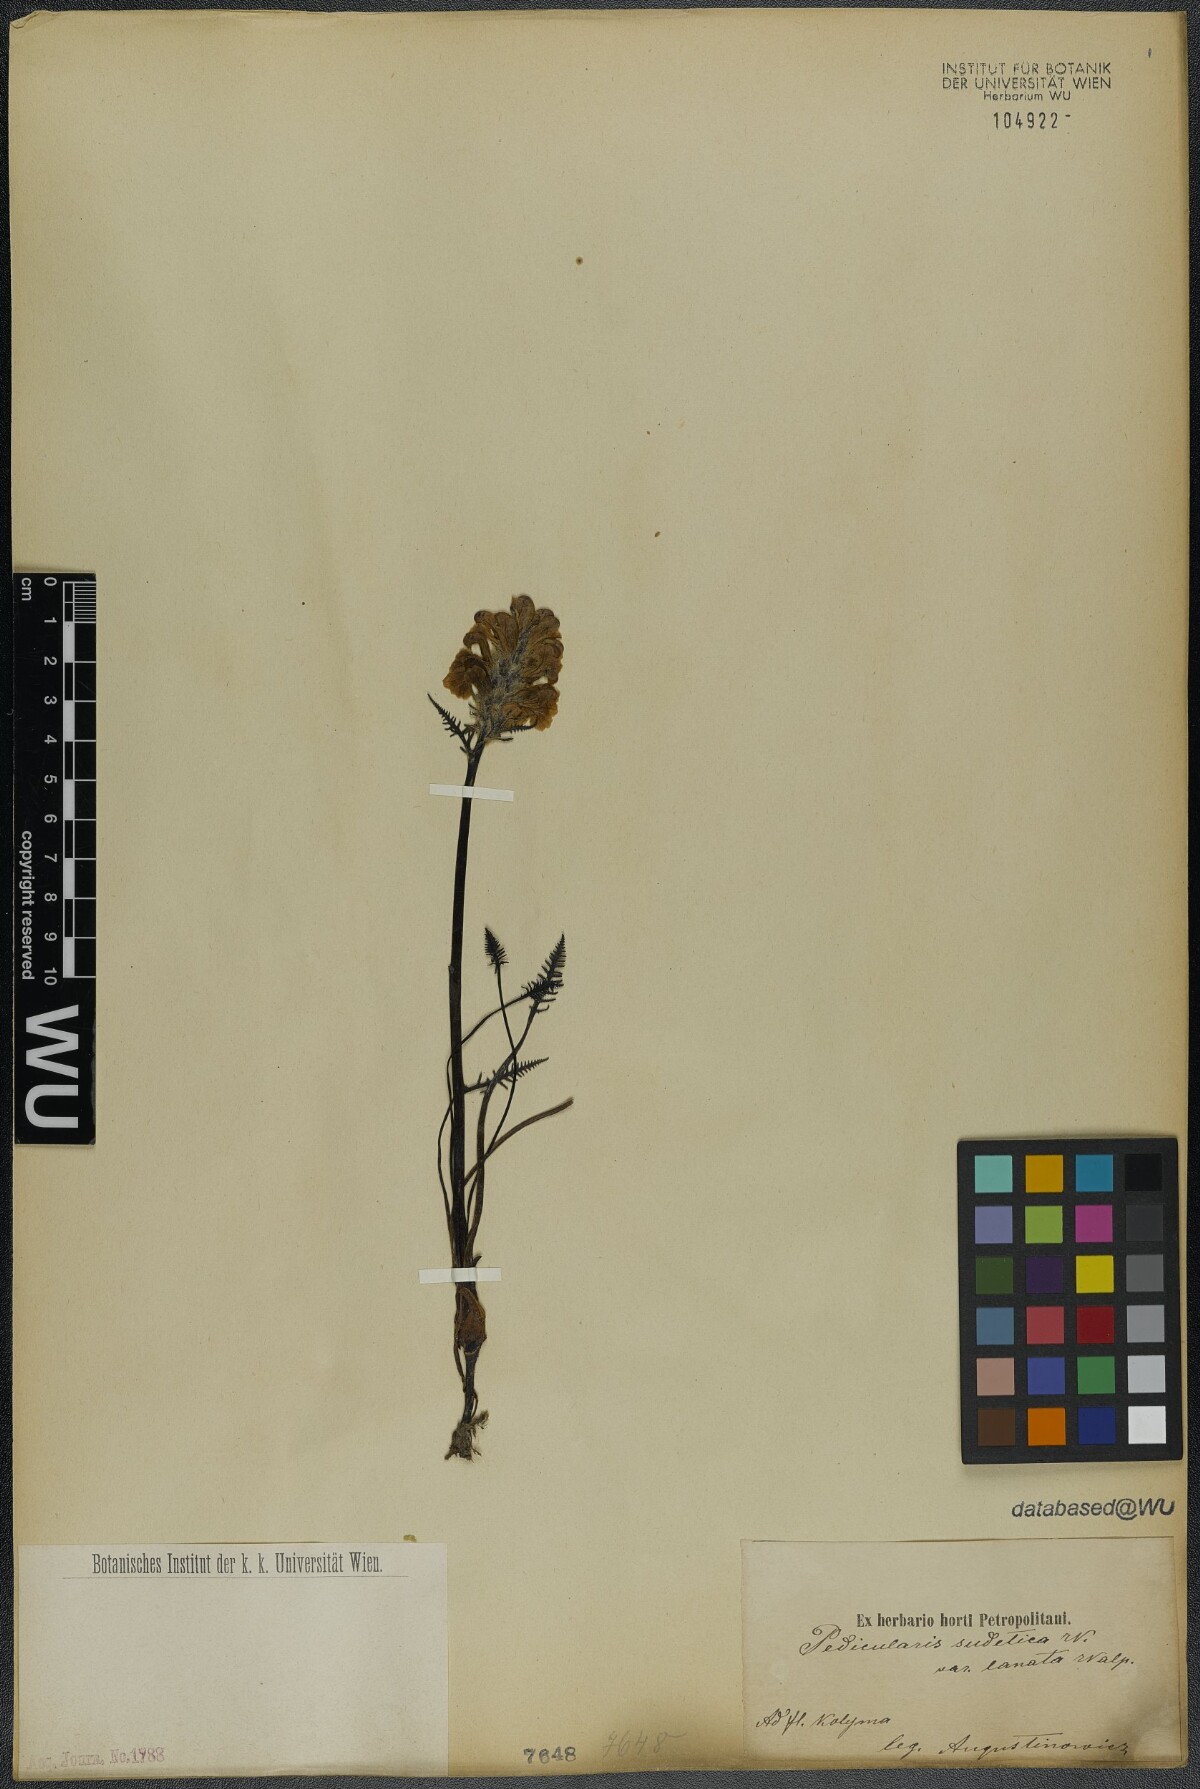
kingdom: Plantae
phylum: Tracheophyta
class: Magnoliopsida
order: Lamiales
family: Orobanchaceae
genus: Pedicularis
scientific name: Pedicularis sudetica
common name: Sudeten lousewort
